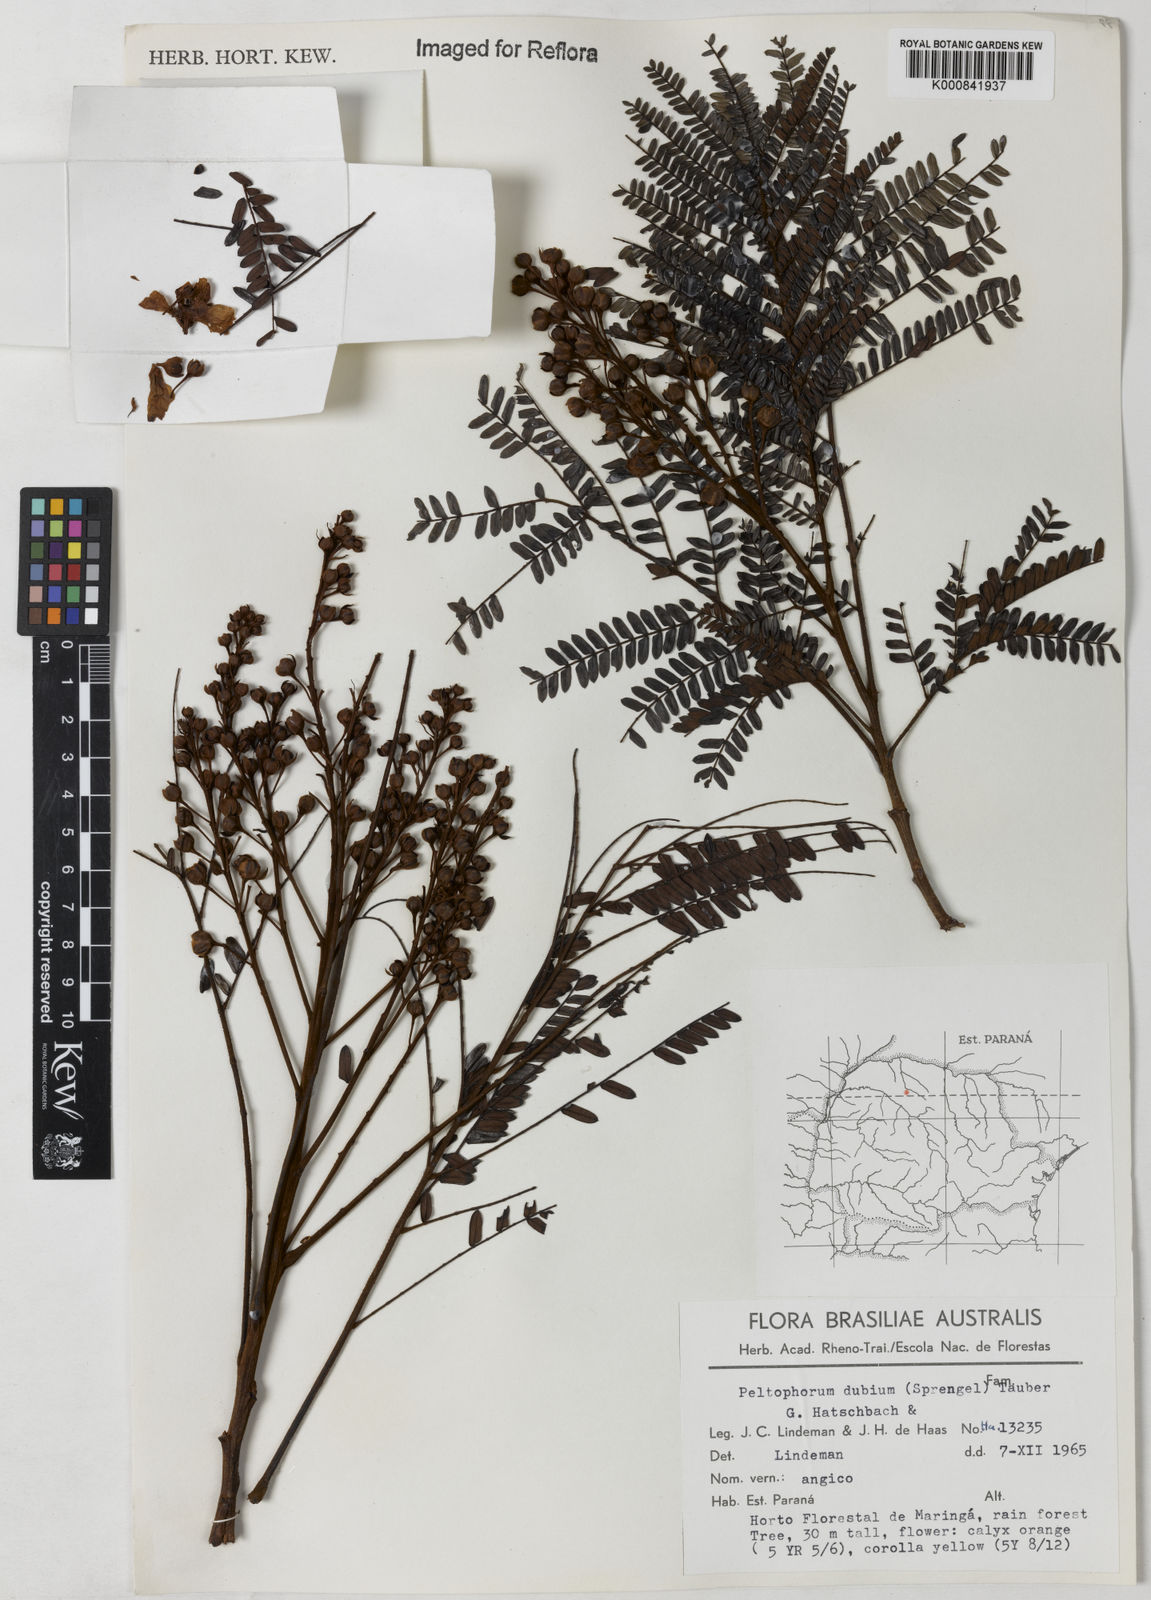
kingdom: Plantae
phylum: Tracheophyta
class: Magnoliopsida
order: Fabales
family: Fabaceae
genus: Peltophorum
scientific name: Peltophorum dubium
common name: Horsebush
